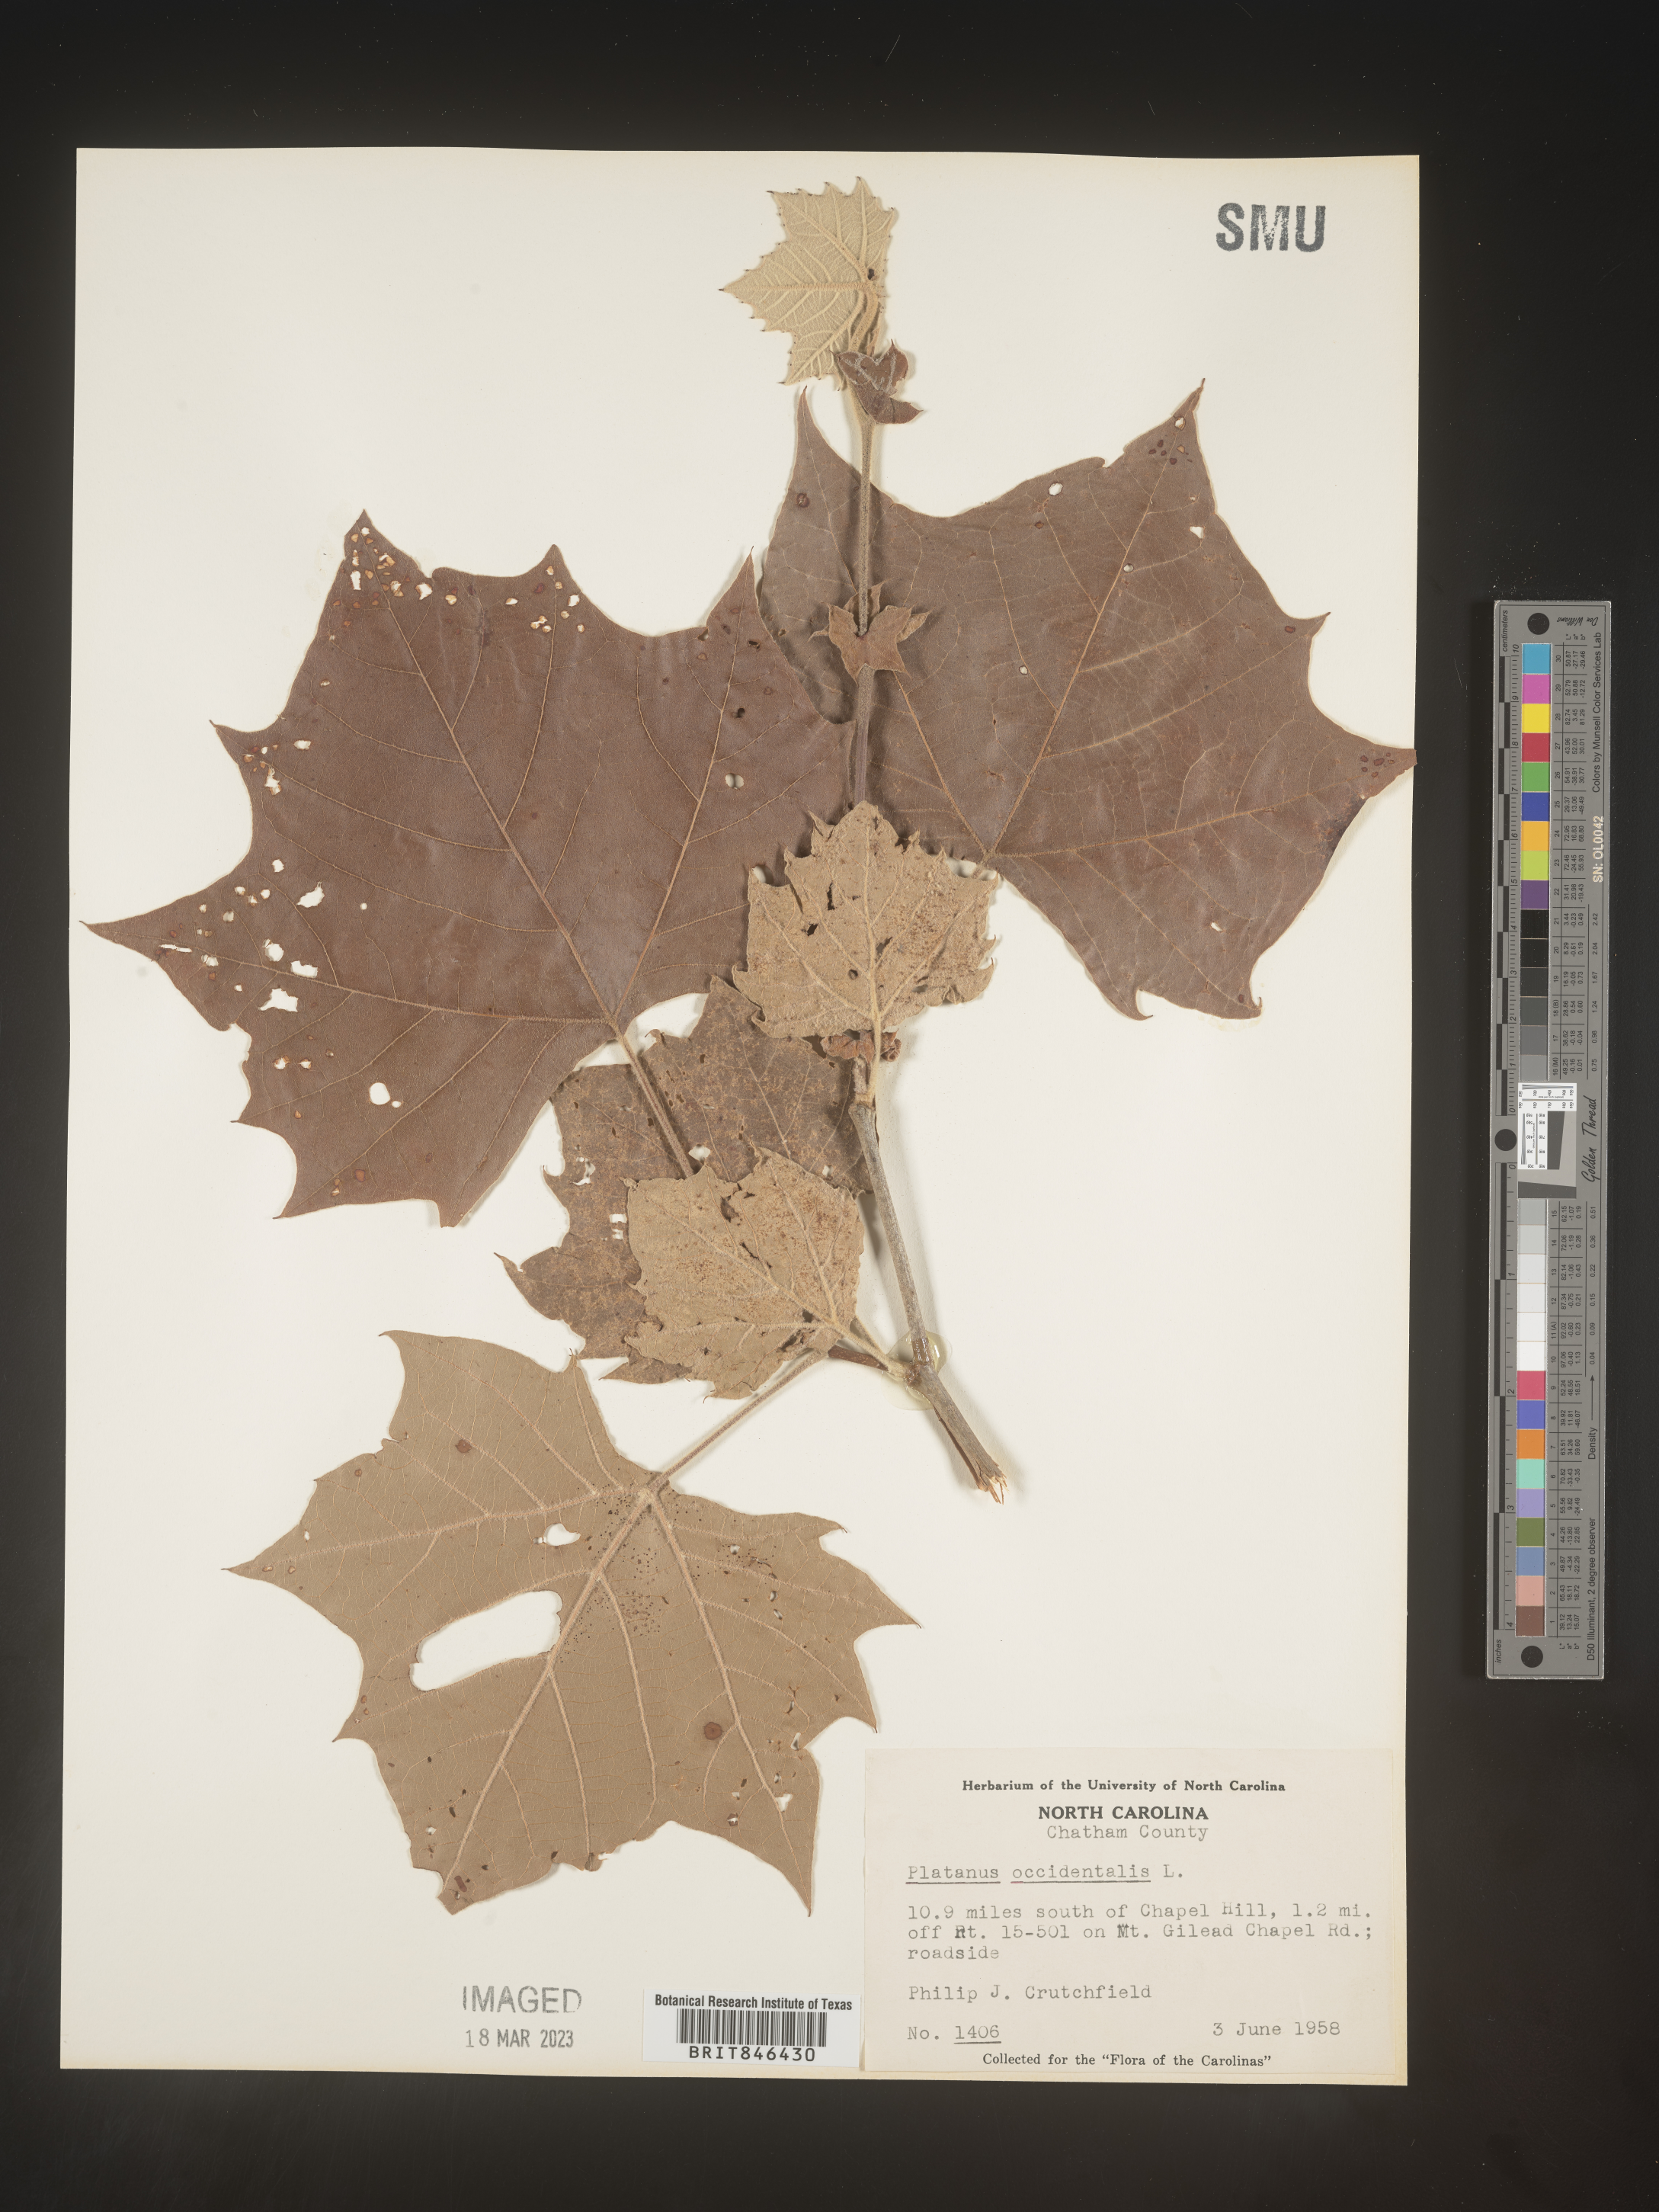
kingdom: Plantae
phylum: Tracheophyta
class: Magnoliopsida
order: Proteales
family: Platanaceae
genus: Platanus
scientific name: Platanus occidentalis
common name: American sycamore
